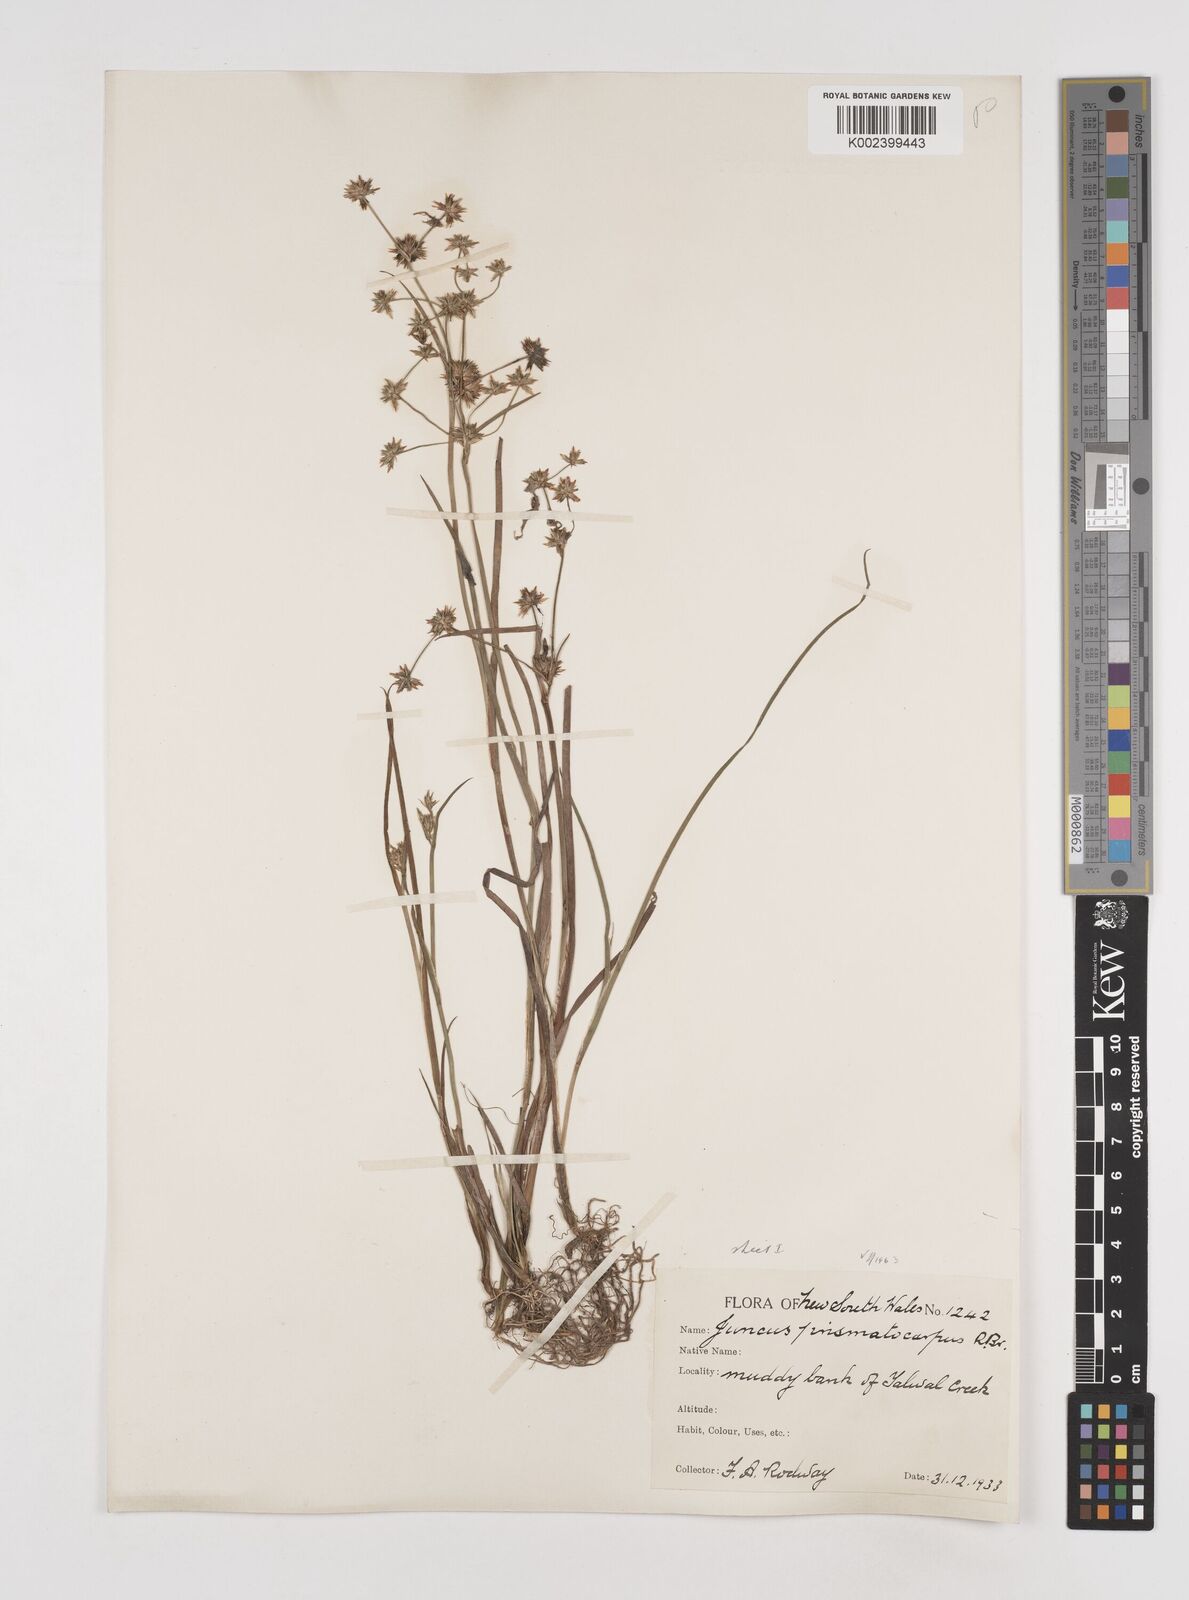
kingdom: Plantae
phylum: Tracheophyta
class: Liliopsida
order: Poales
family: Juncaceae
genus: Juncus
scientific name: Juncus prismatocarpus
